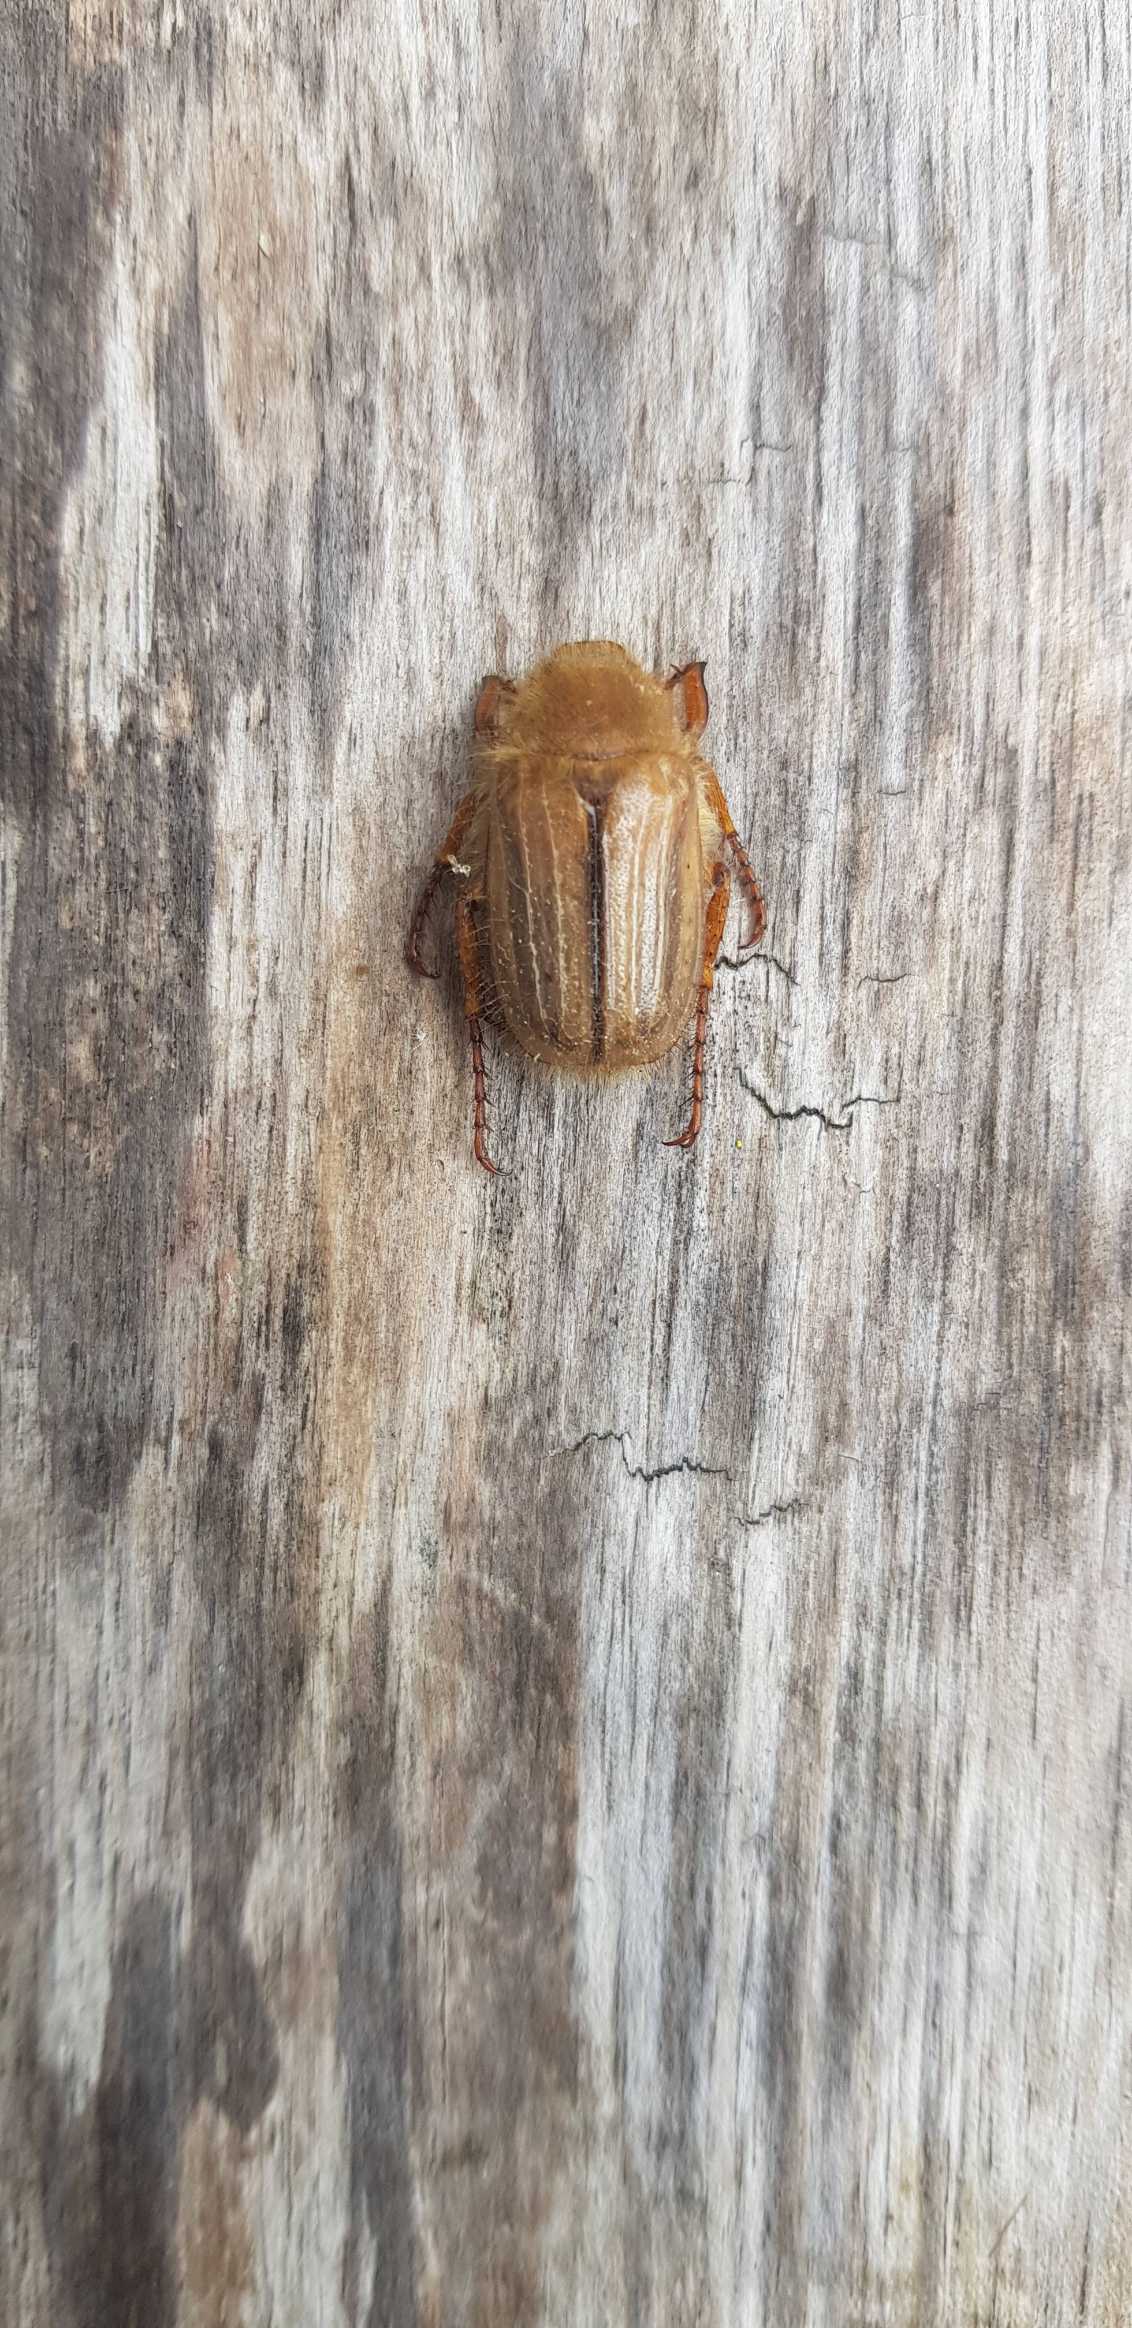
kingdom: Animalia
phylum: Arthropoda
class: Insecta
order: Coleoptera
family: Scarabaeidae
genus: Amphimallon
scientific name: Amphimallon solstitiale
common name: Sankthansoldenborre
